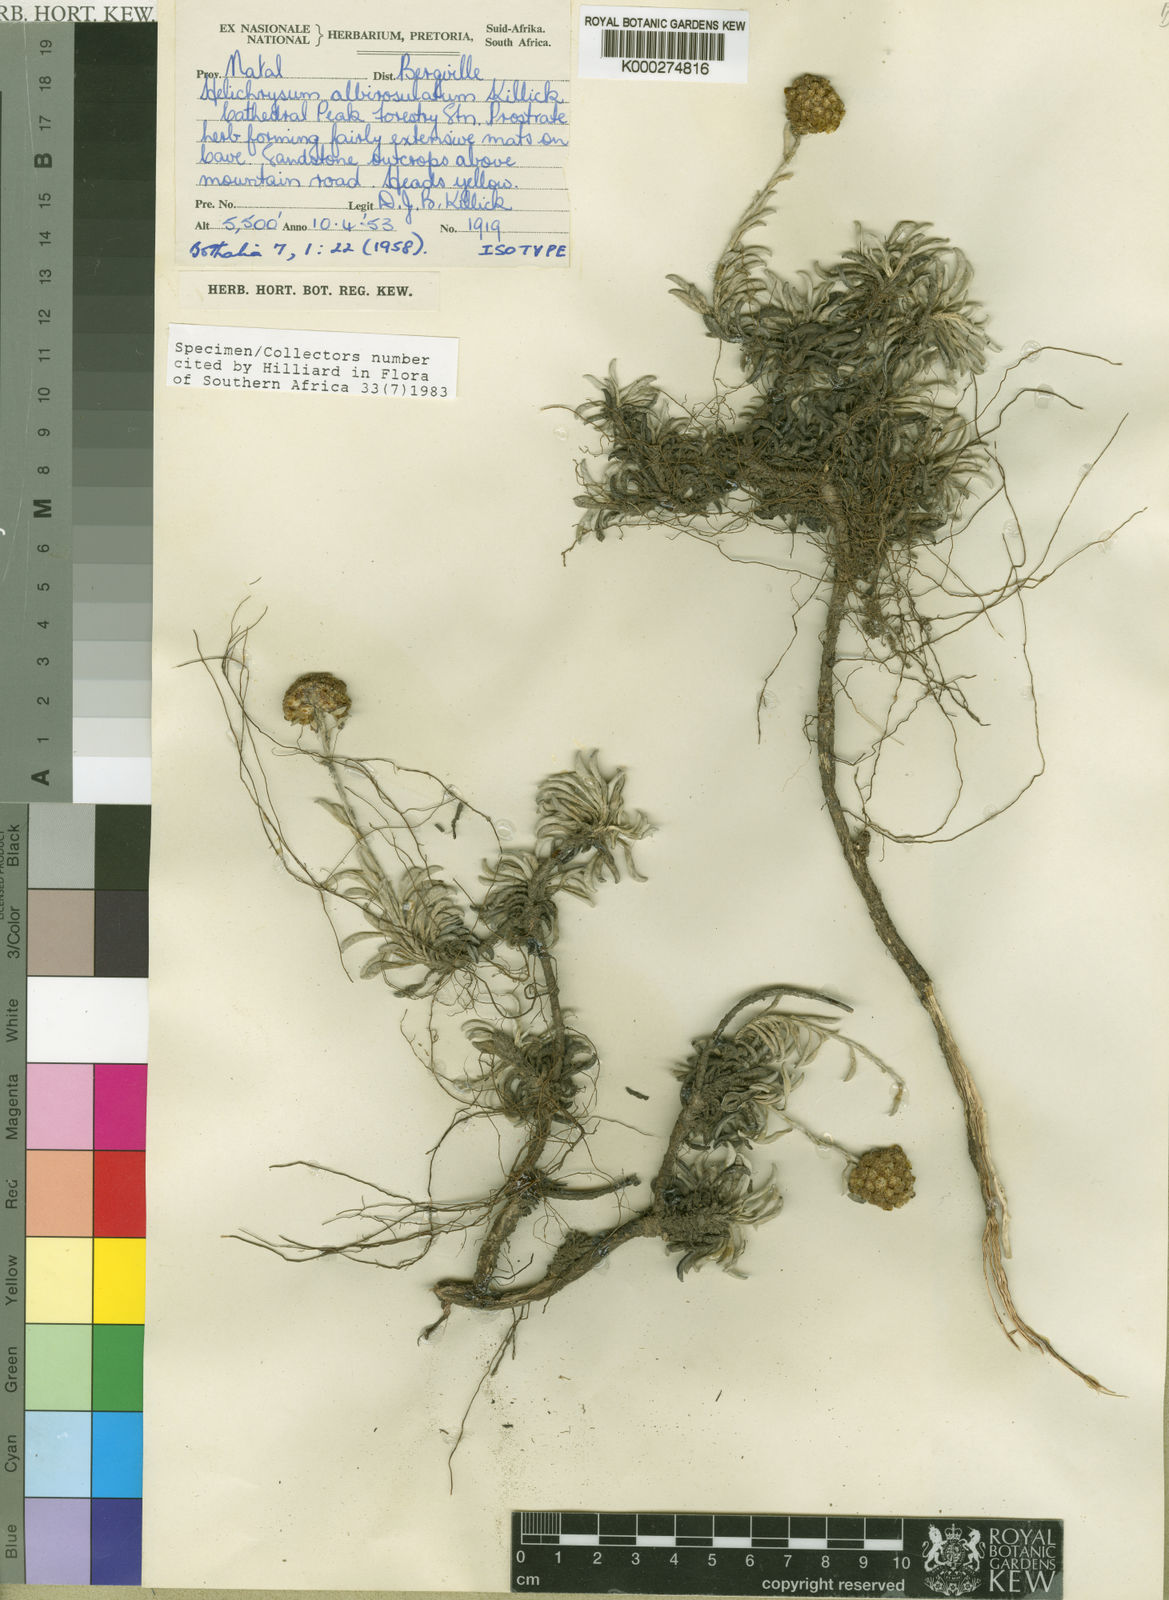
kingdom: Plantae
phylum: Tracheophyta
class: Magnoliopsida
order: Asterales
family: Asteraceae
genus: Helichrysum
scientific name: Helichrysum albirosulatum
